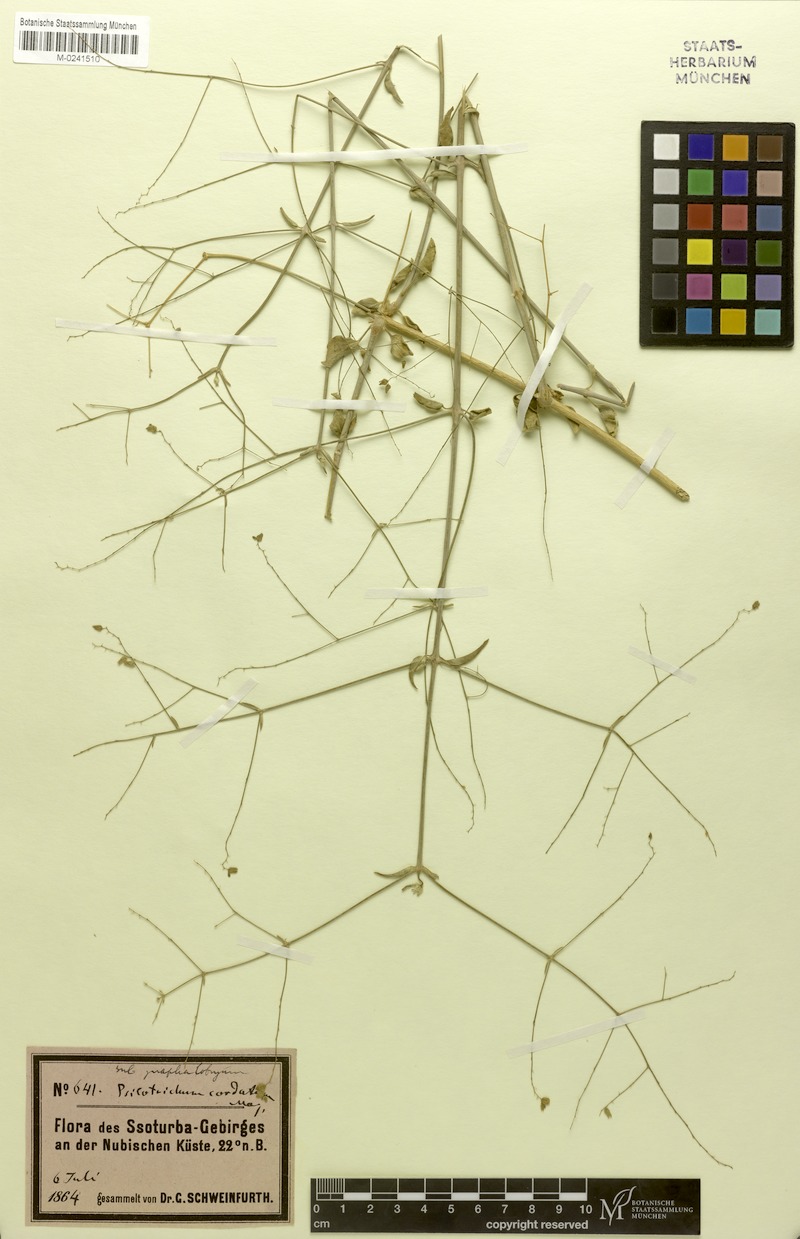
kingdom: Plantae
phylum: Tracheophyta
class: Magnoliopsida
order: Caryophyllales
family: Amaranthaceae
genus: Psilotrichum
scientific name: Psilotrichum gnaphalobryum
